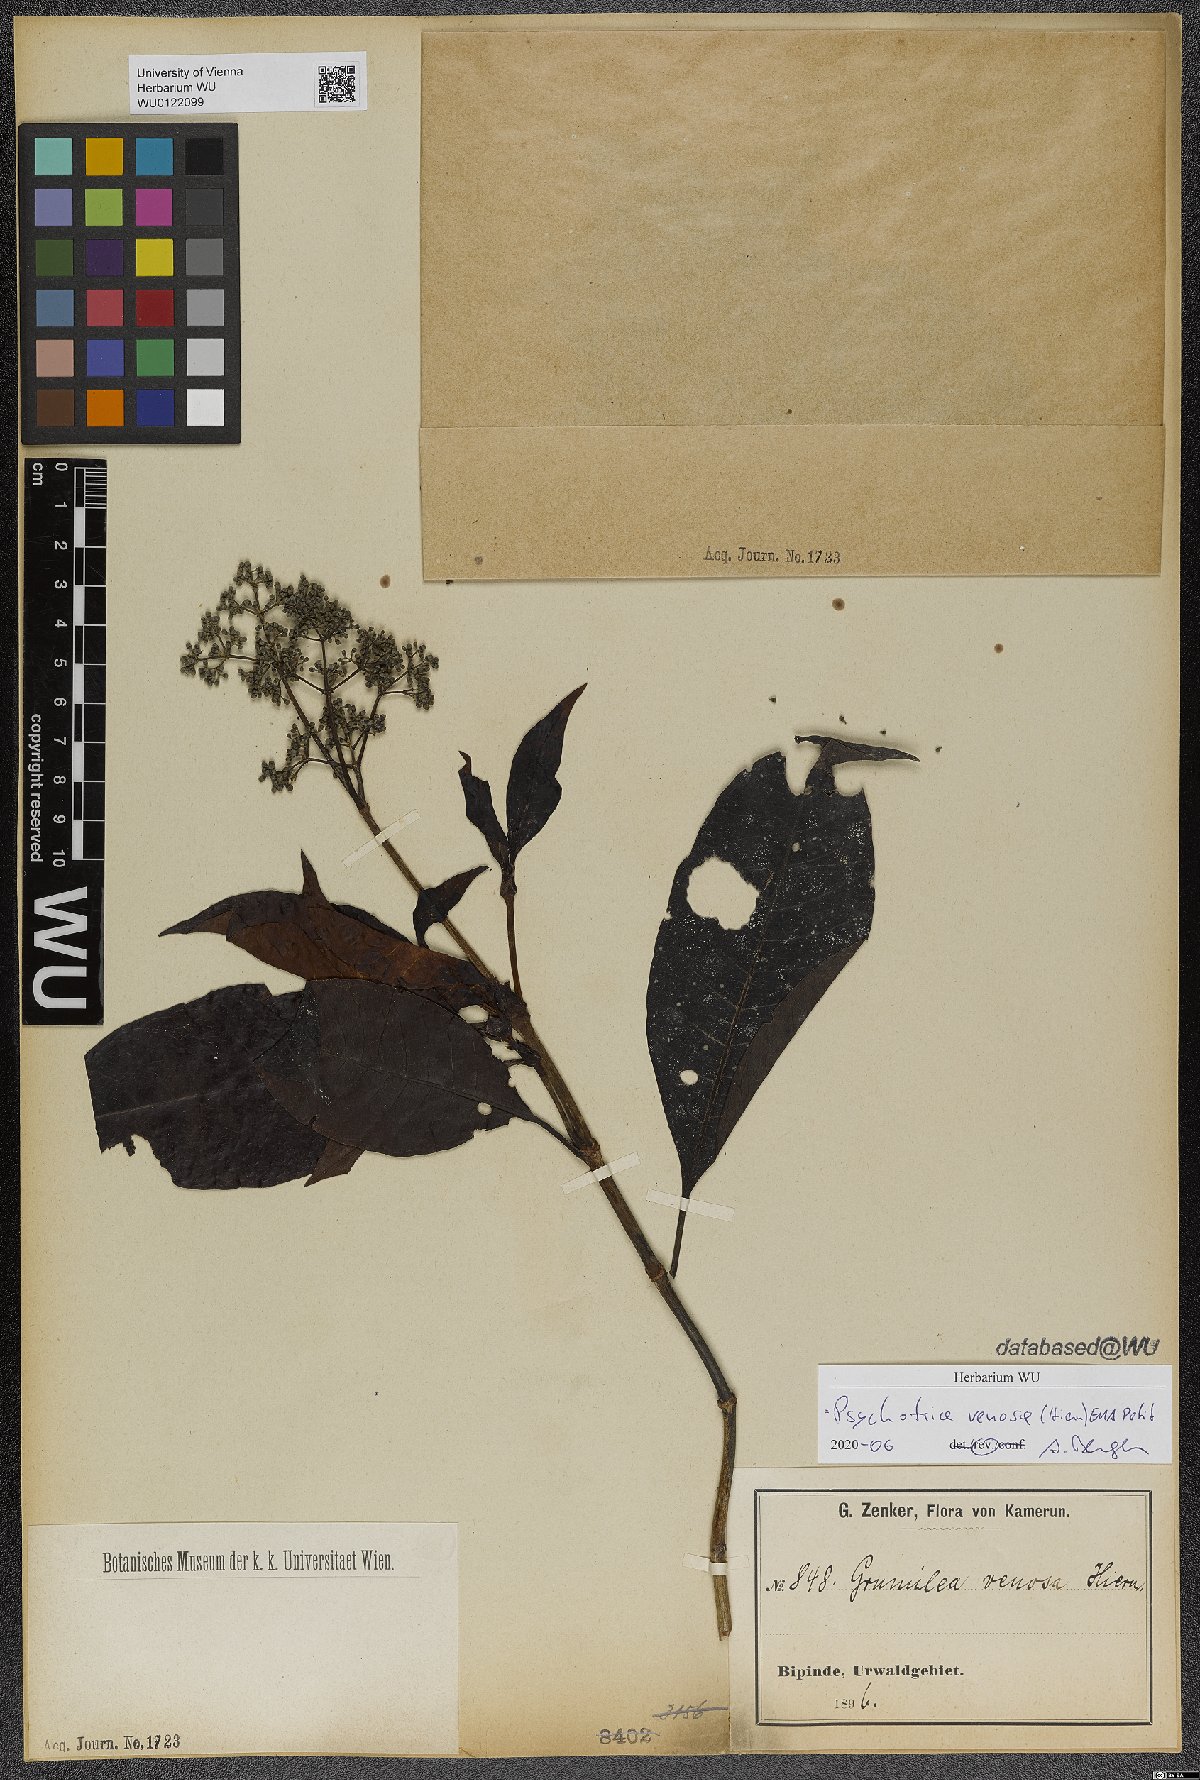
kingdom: Plantae
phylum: Tracheophyta
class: Magnoliopsida
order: Gentianales
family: Rubiaceae
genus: Psychotria
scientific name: Psychotria venosa
